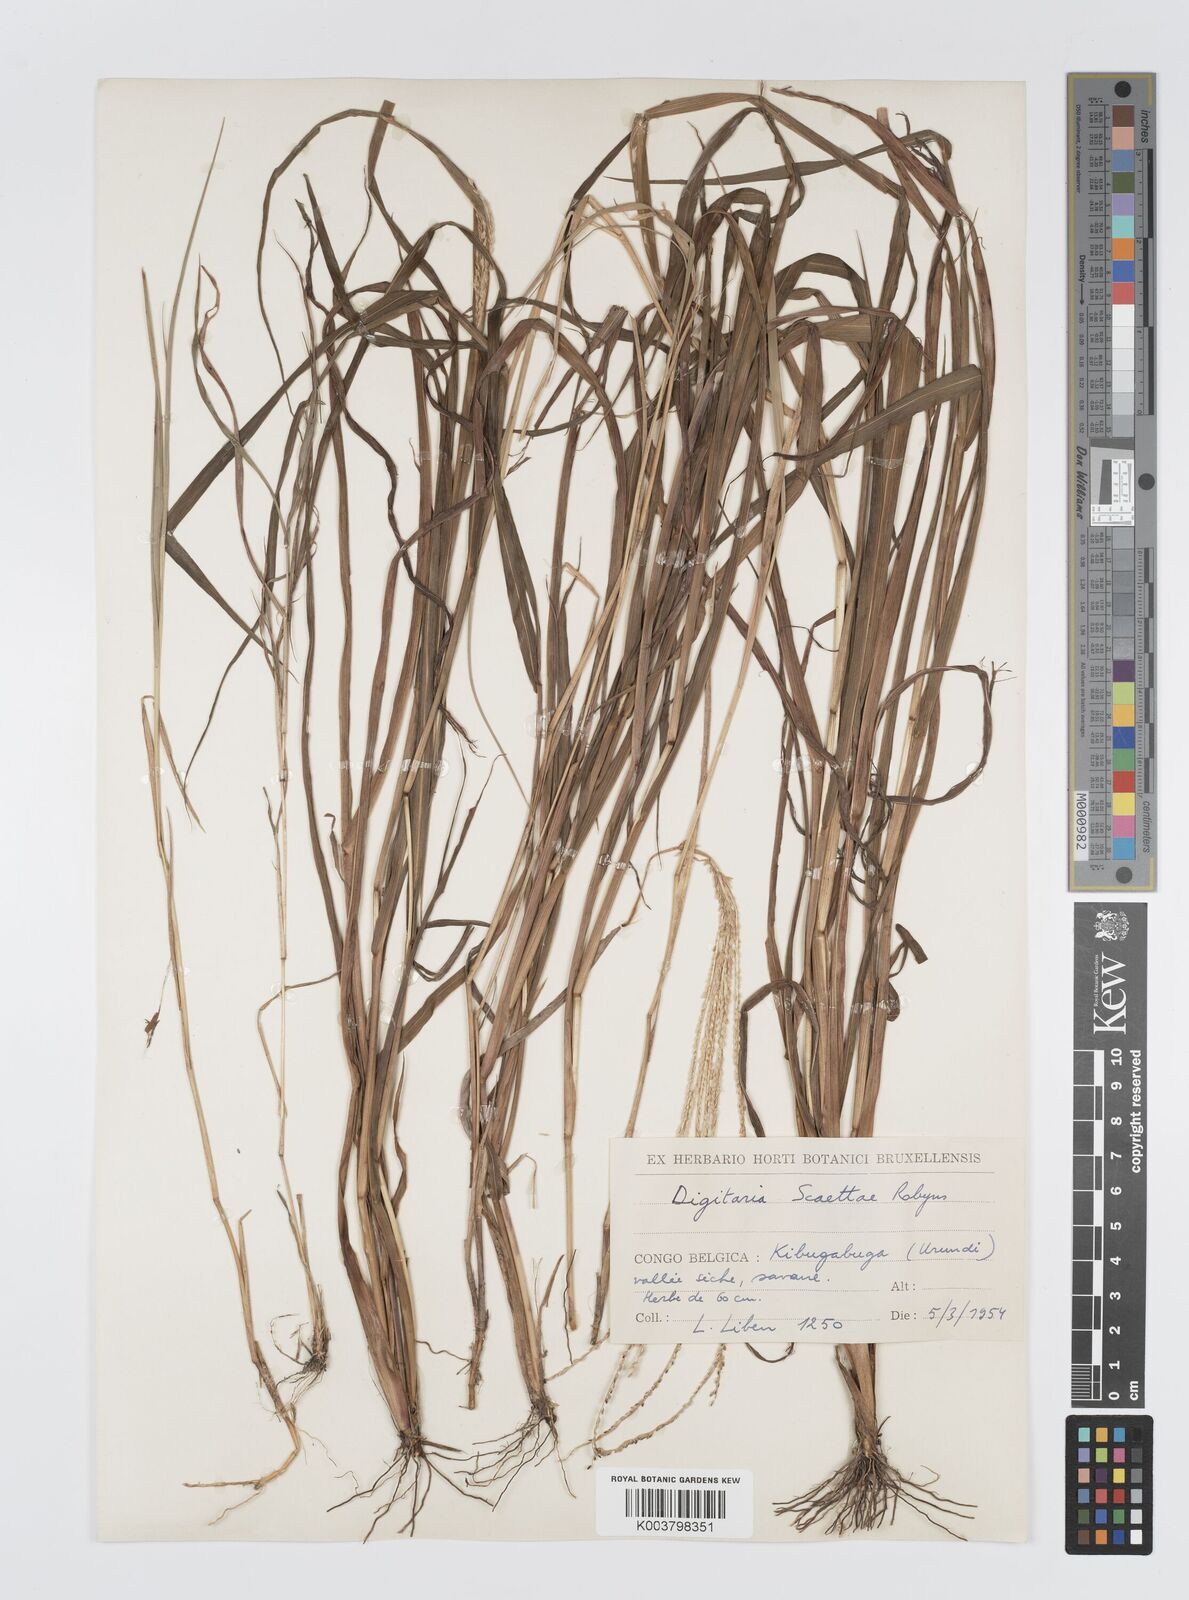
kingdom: Plantae
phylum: Tracheophyta
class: Liliopsida
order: Poales
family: Poaceae
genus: Digitaria
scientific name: Digitaria ternata
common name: Blackseed crabgrass
